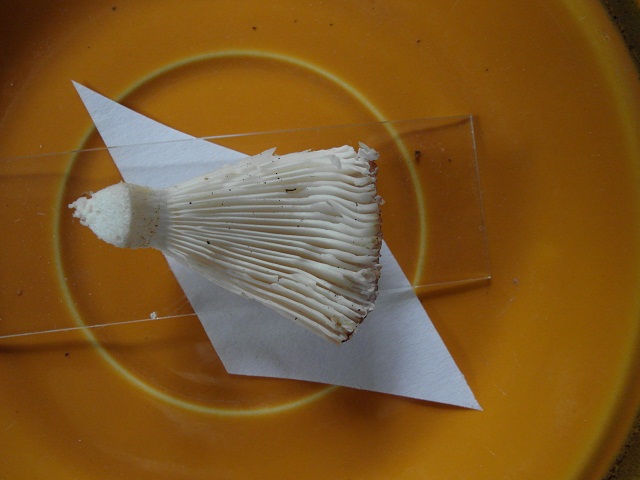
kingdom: Fungi
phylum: Basidiomycota
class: Agaricomycetes
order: Russulales
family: Russulaceae
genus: Russula
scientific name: Russula vesca
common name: spiselig skørhat
